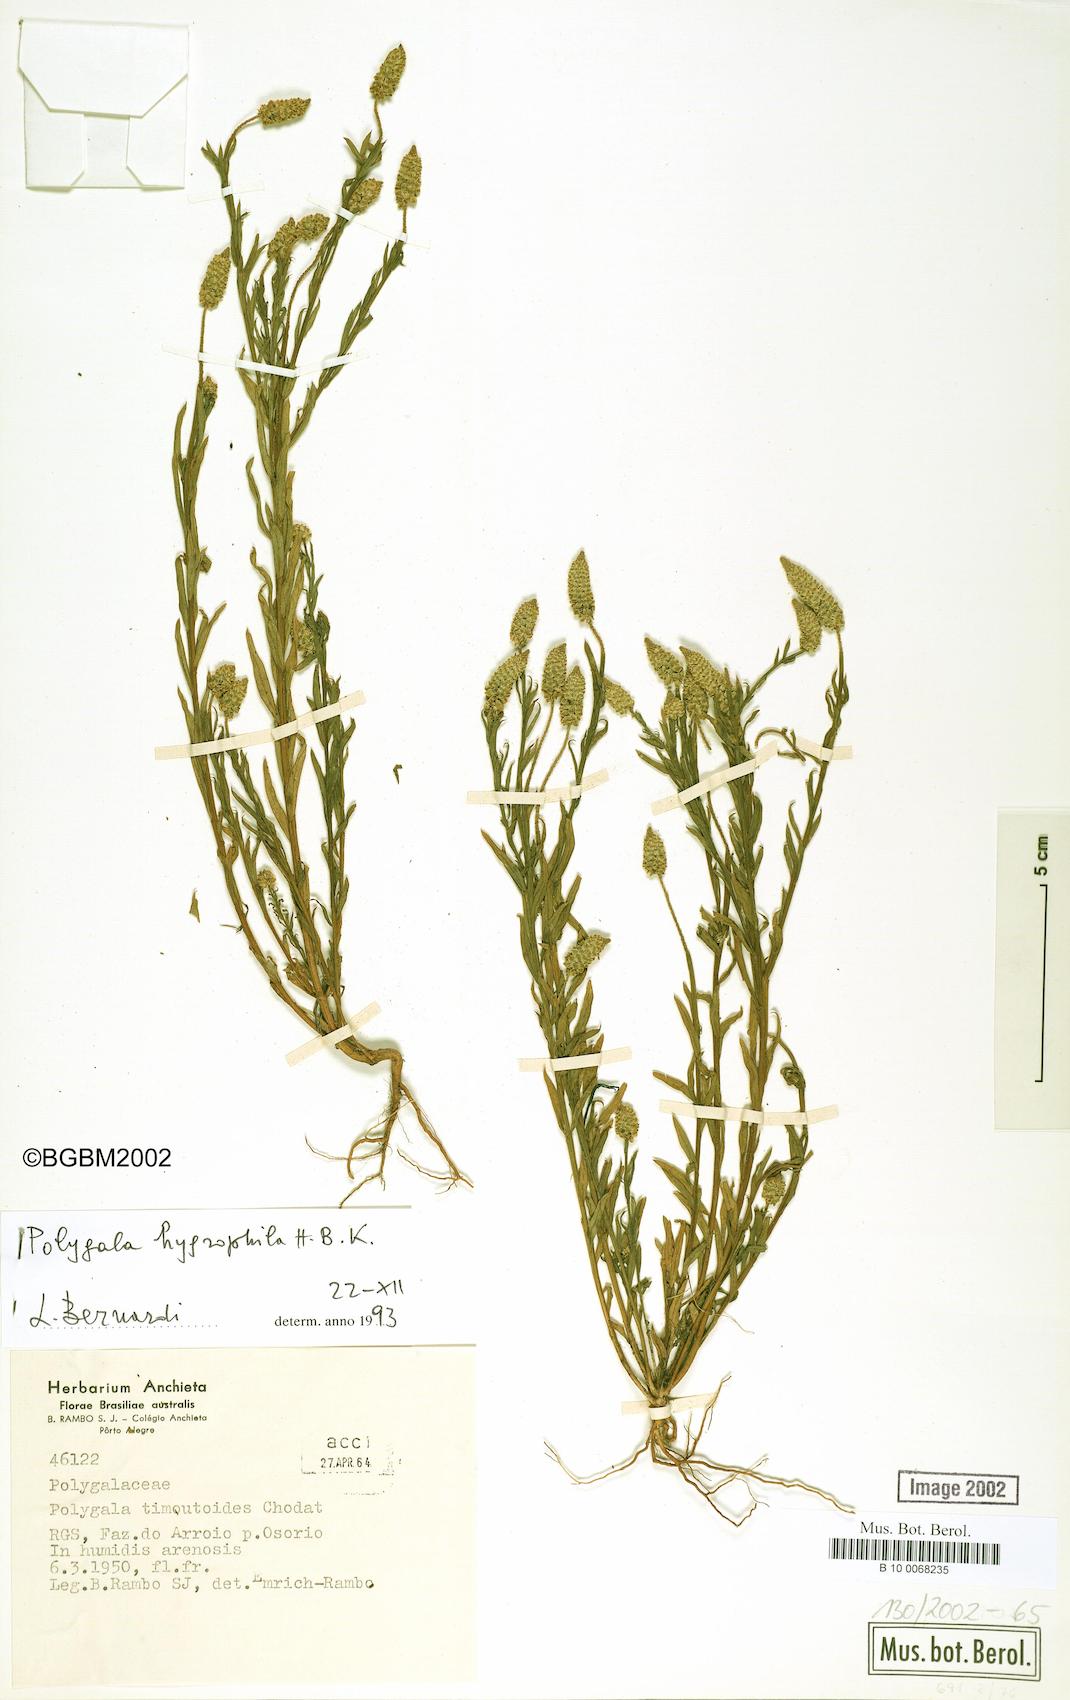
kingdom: Plantae
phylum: Tracheophyta
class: Magnoliopsida
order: Fabales
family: Polygalaceae
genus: Polygala
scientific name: Polygala hygrophila
